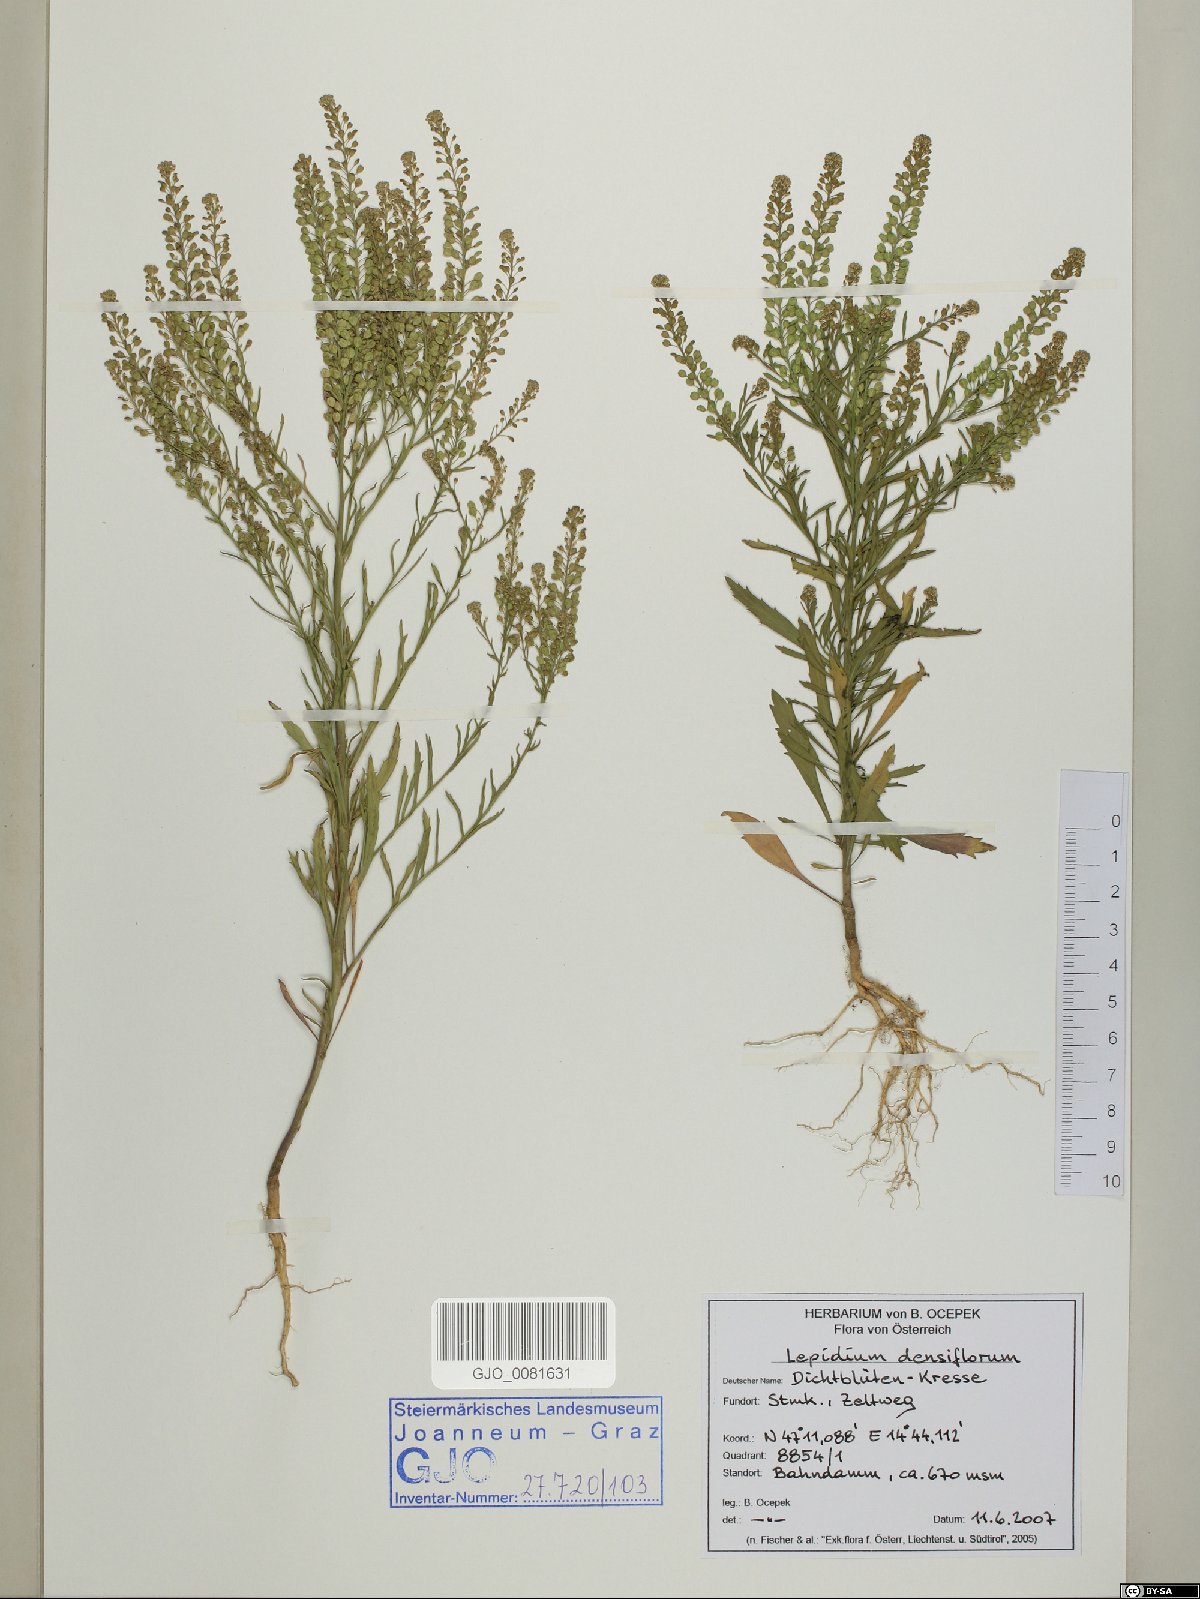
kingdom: Plantae
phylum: Tracheophyta
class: Magnoliopsida
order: Brassicales
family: Brassicaceae
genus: Lepidium
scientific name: Lepidium densiflorum
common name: Miner's pepperwort
